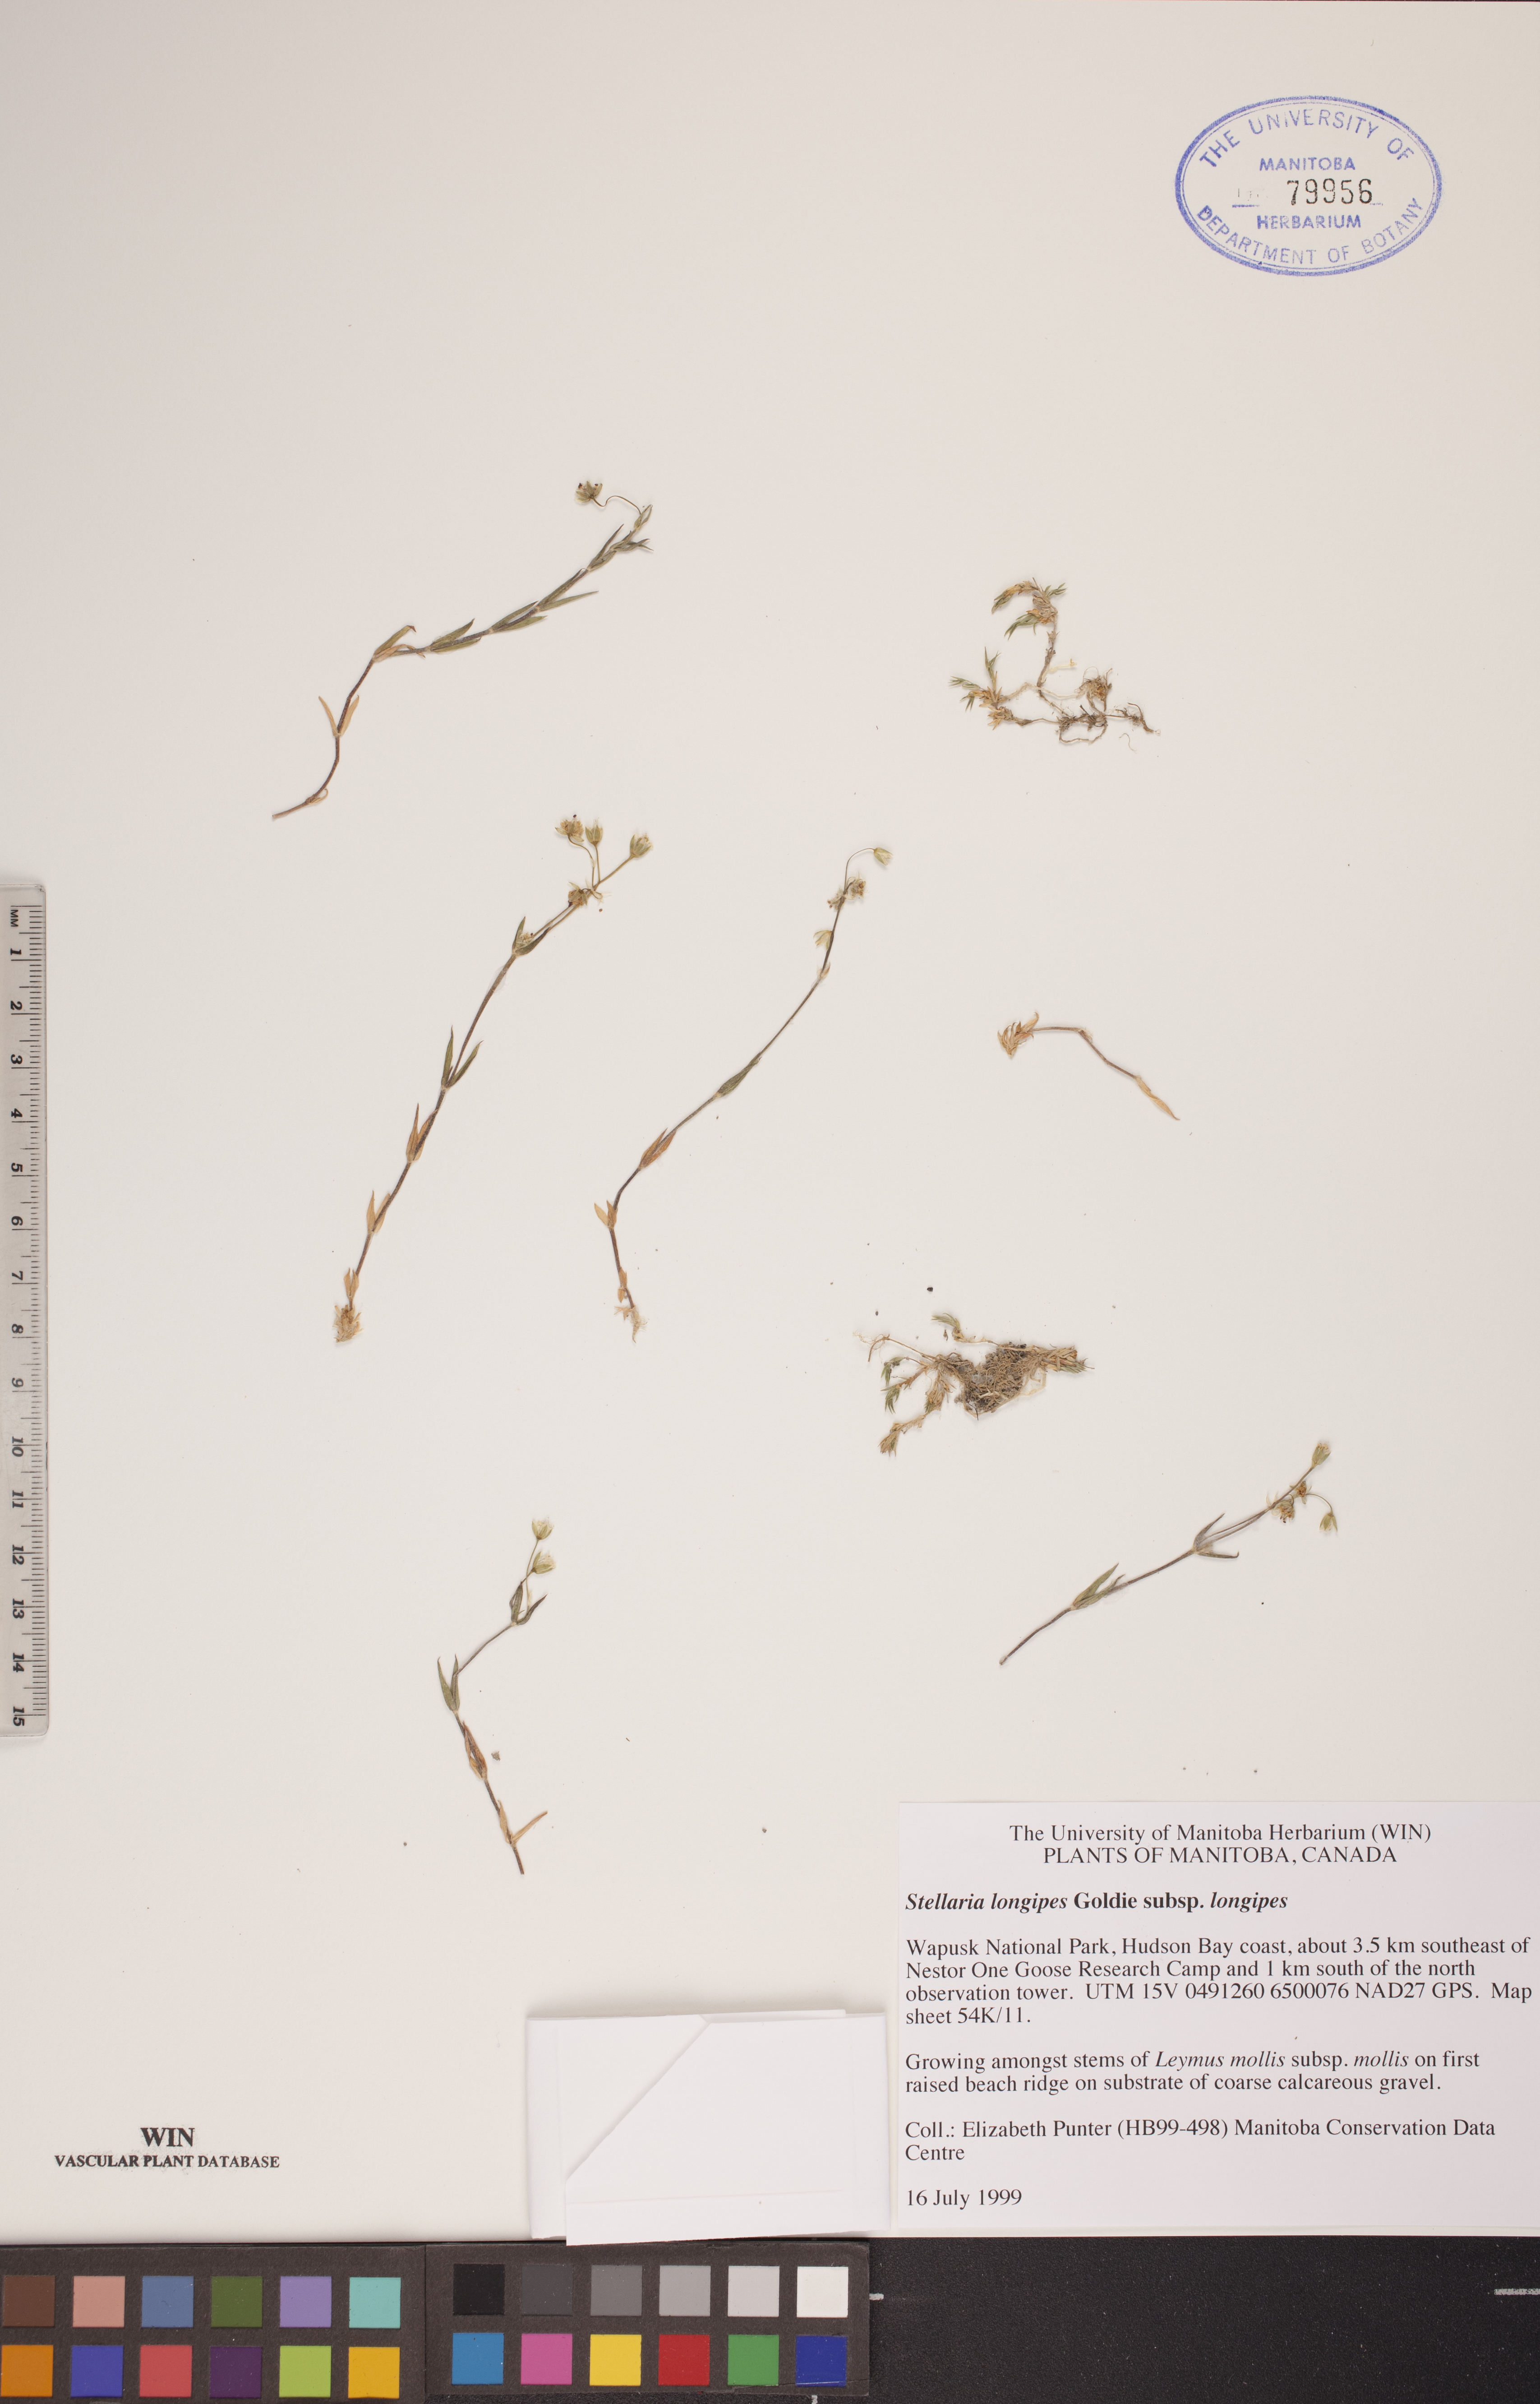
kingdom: Plantae
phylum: Tracheophyta
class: Magnoliopsida
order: Caryophyllales
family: Caryophyllaceae
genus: Stellaria
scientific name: Stellaria longipes
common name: Goldie's starwort
